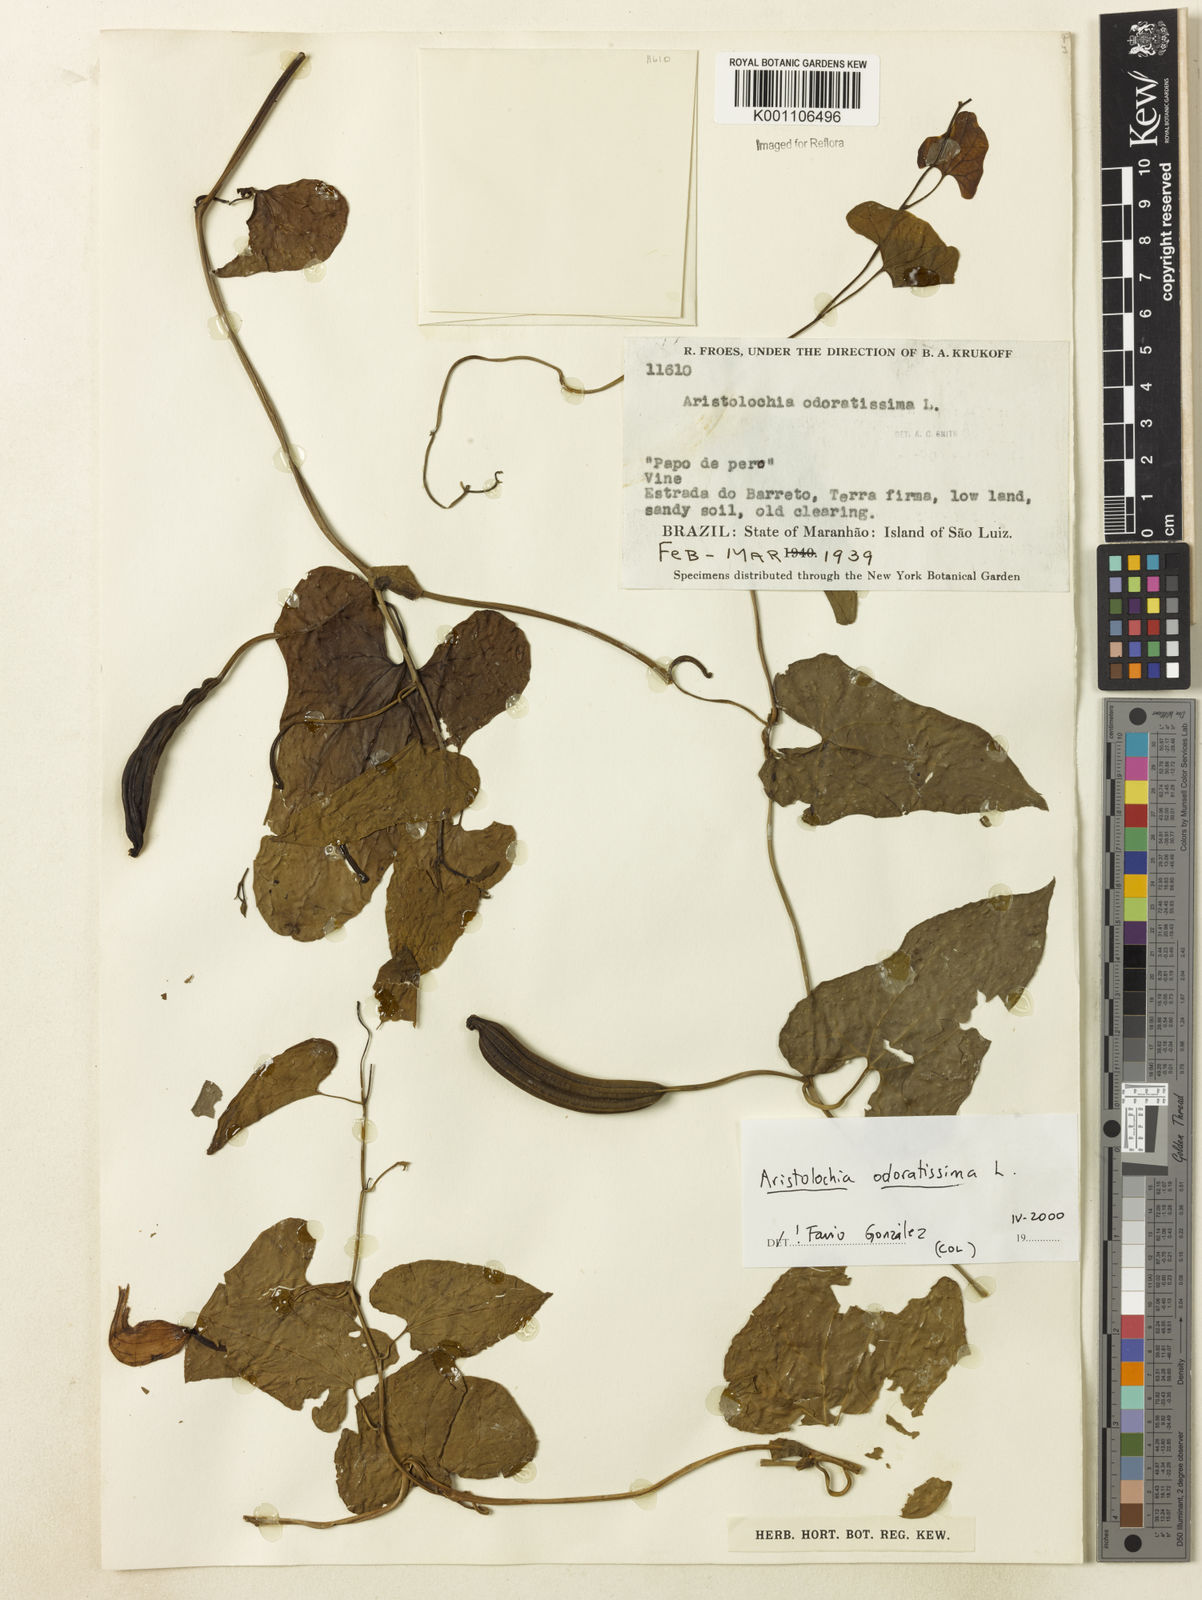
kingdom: Plantae
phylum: Tracheophyta
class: Magnoliopsida
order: Piperales
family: Aristolochiaceae
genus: Aristolochia
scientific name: Aristolochia odoratissima
